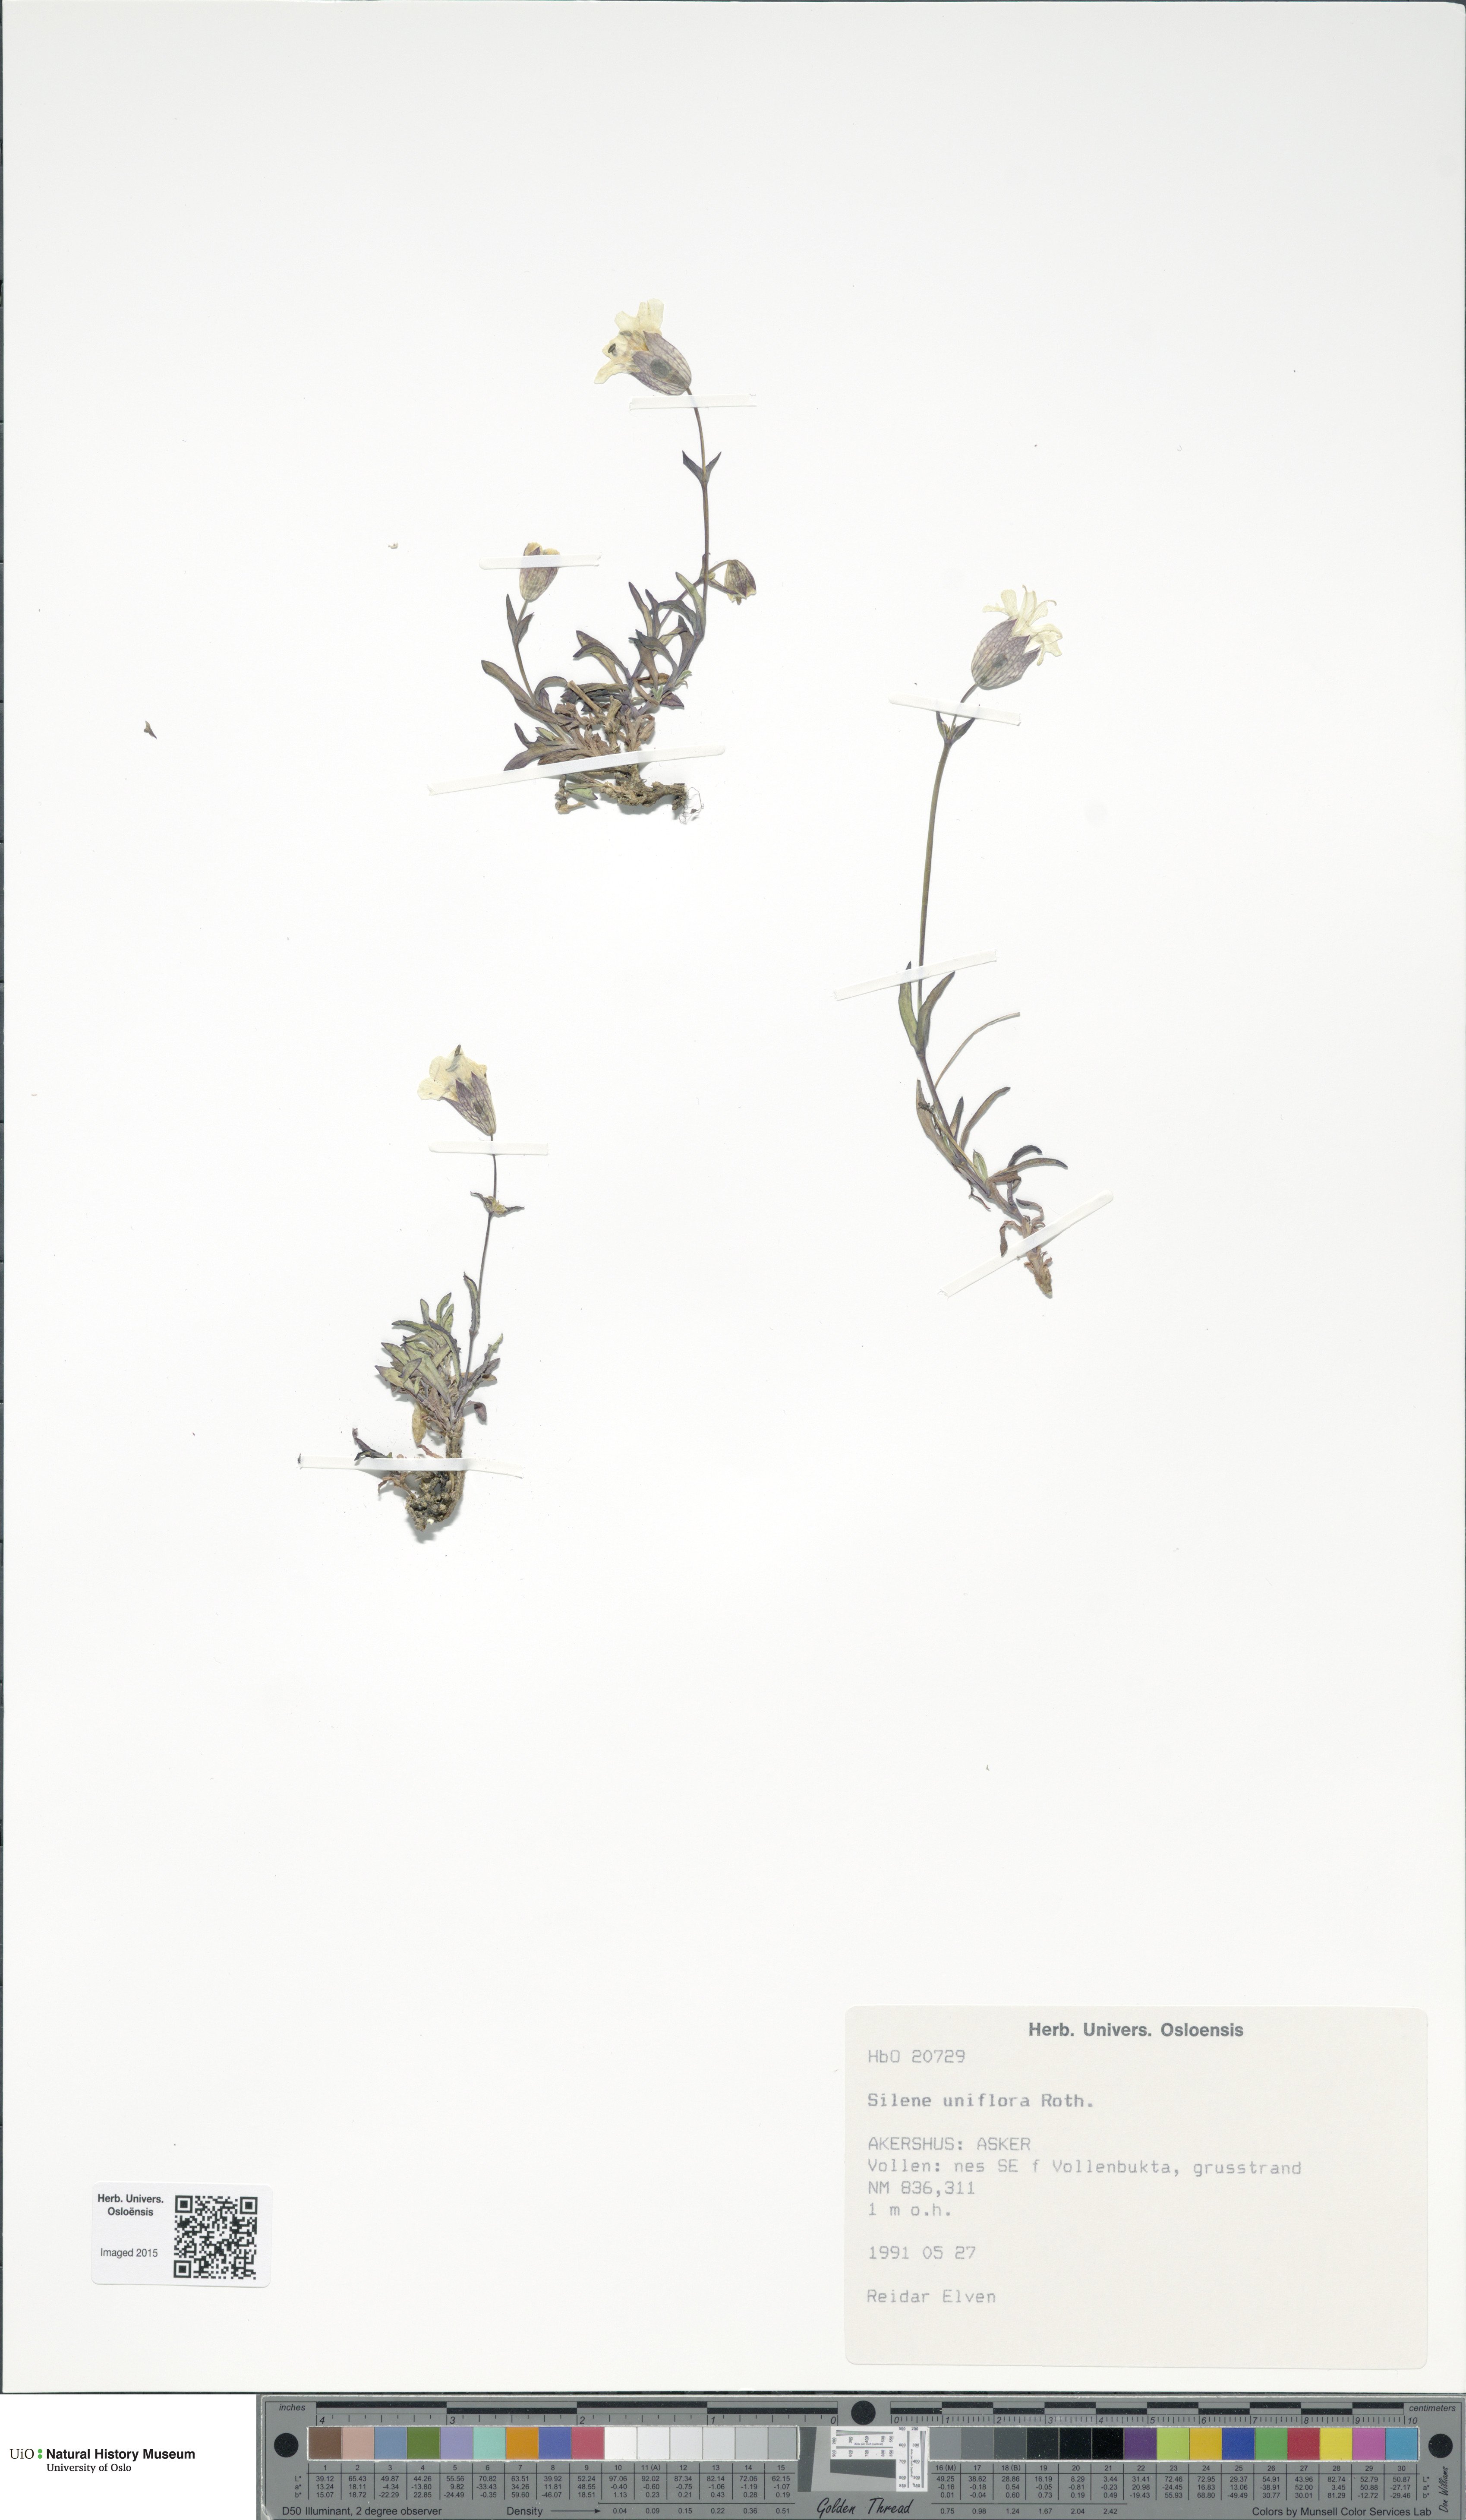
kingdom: Plantae
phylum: Tracheophyta
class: Magnoliopsida
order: Caryophyllales
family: Caryophyllaceae
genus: Silene
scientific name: Silene uniflora
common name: Sea campion
